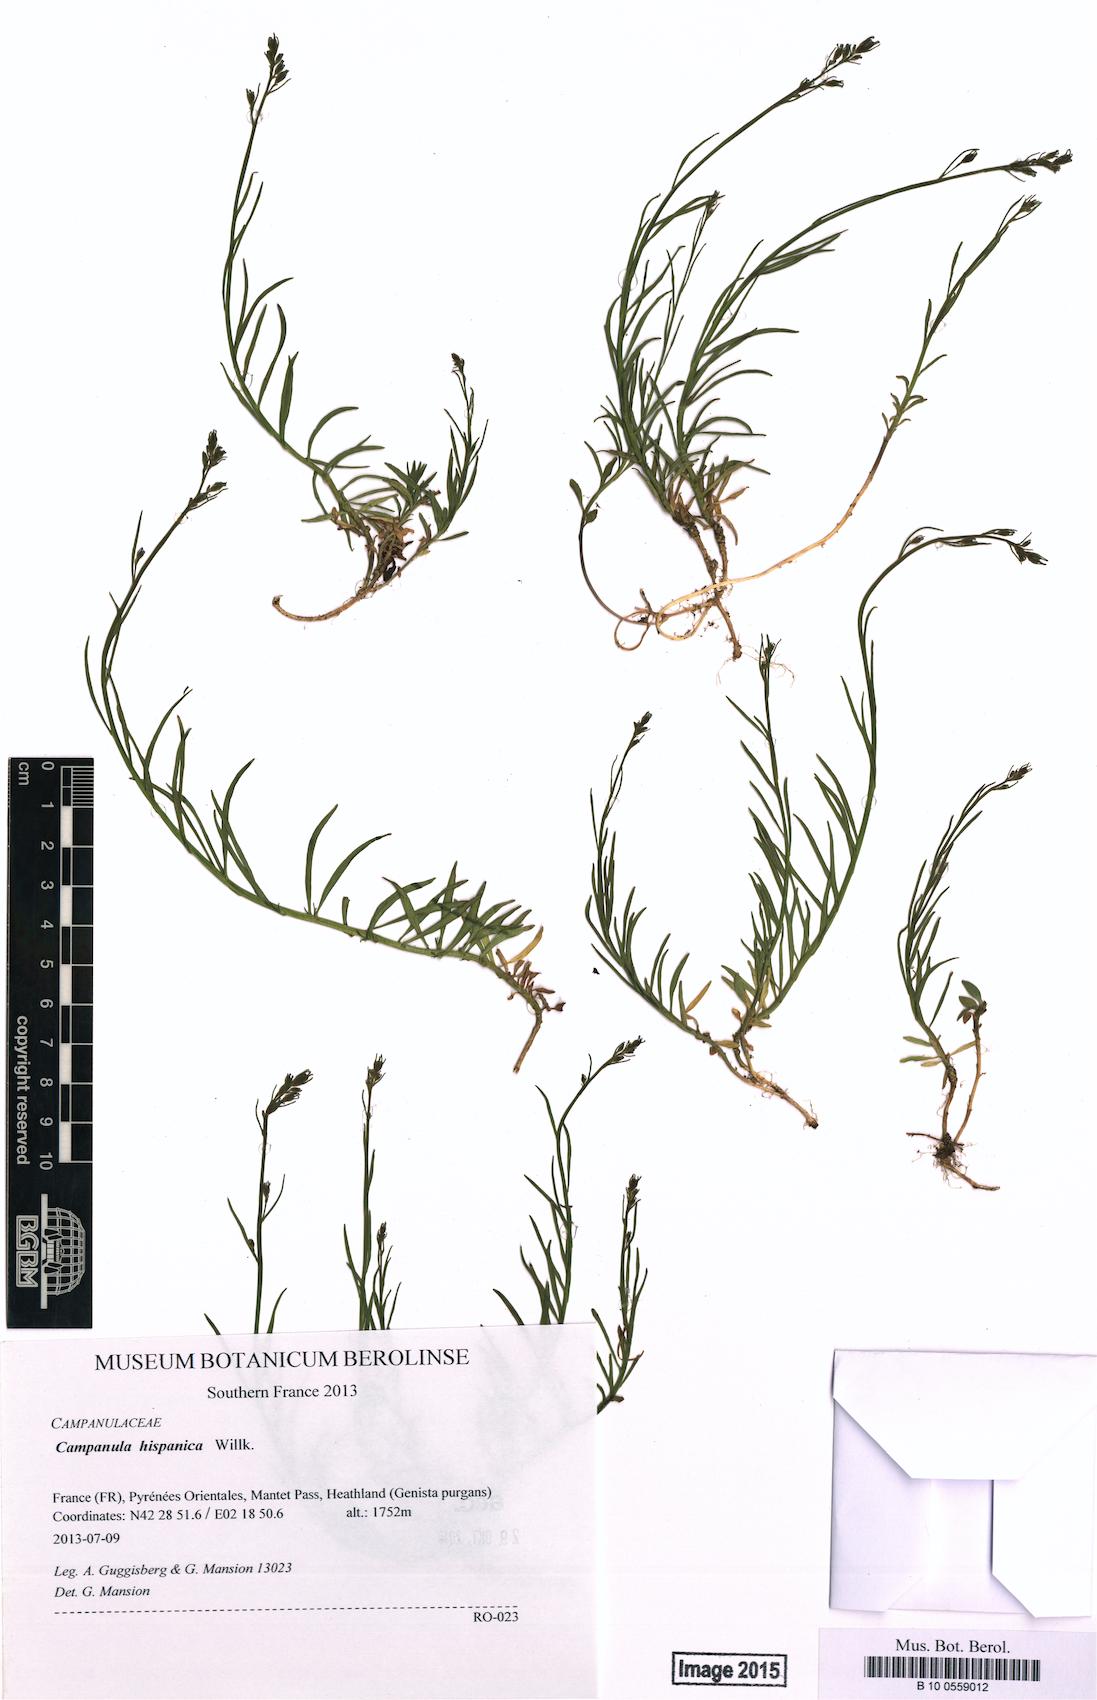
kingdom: Plantae
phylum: Tracheophyta
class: Magnoliopsida
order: Asterales
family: Campanulaceae
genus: Campanula
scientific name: Campanula hispanica
